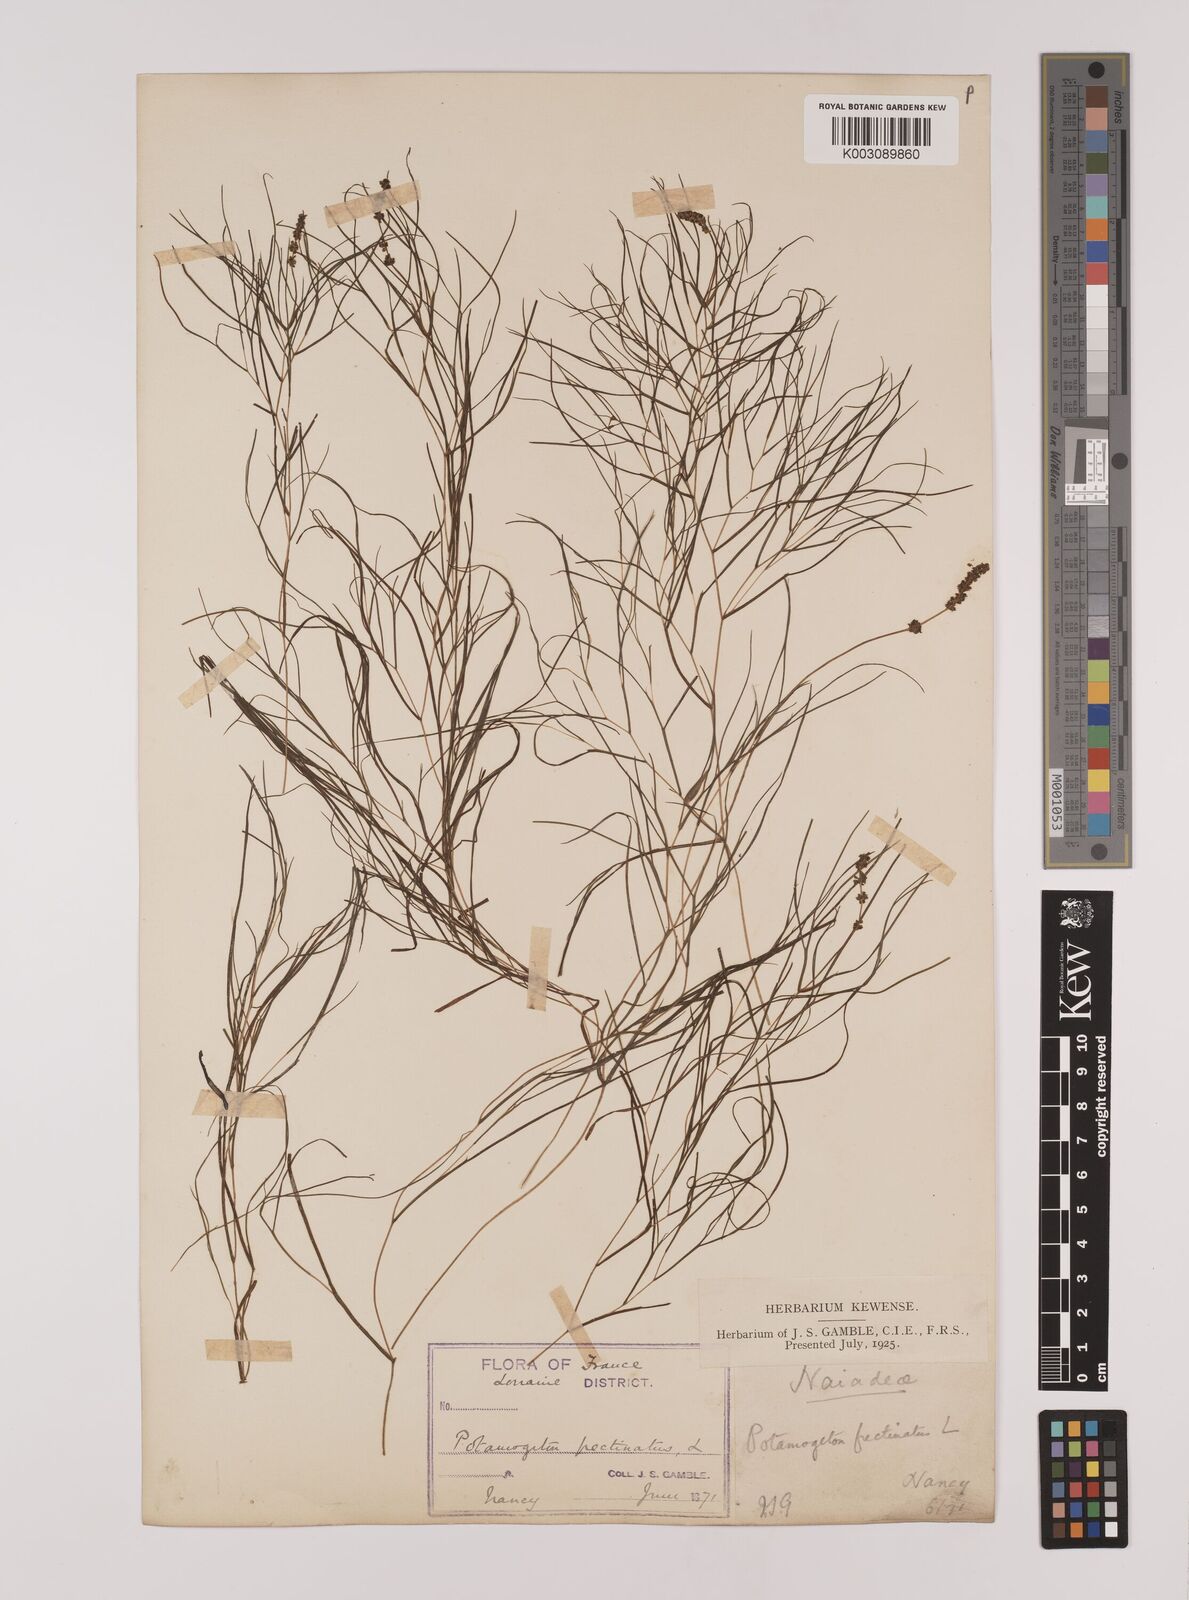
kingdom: Plantae
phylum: Tracheophyta
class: Liliopsida
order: Alismatales
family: Potamogetonaceae
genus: Stuckenia
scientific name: Stuckenia pectinata
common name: Sago pondweed
